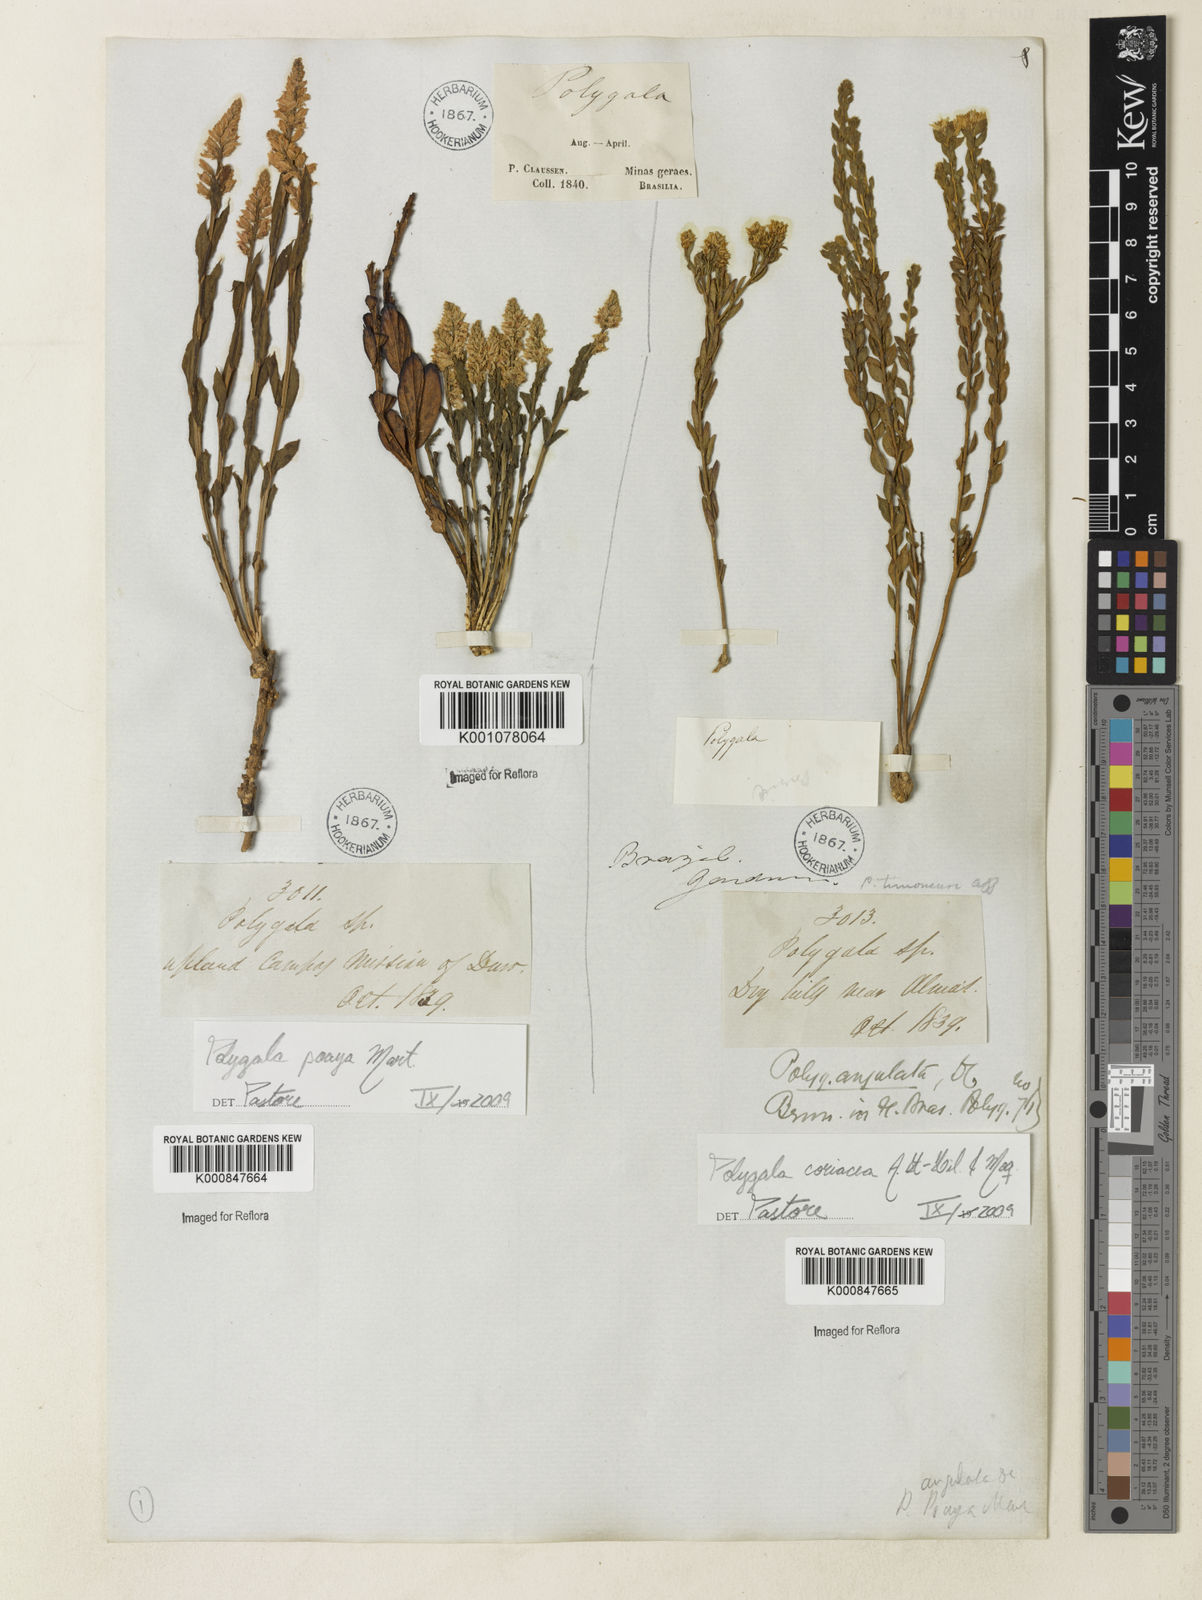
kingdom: Plantae
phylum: Tracheophyta
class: Magnoliopsida
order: Fabales
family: Polygalaceae
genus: Polygala
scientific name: Polygala coriacea
